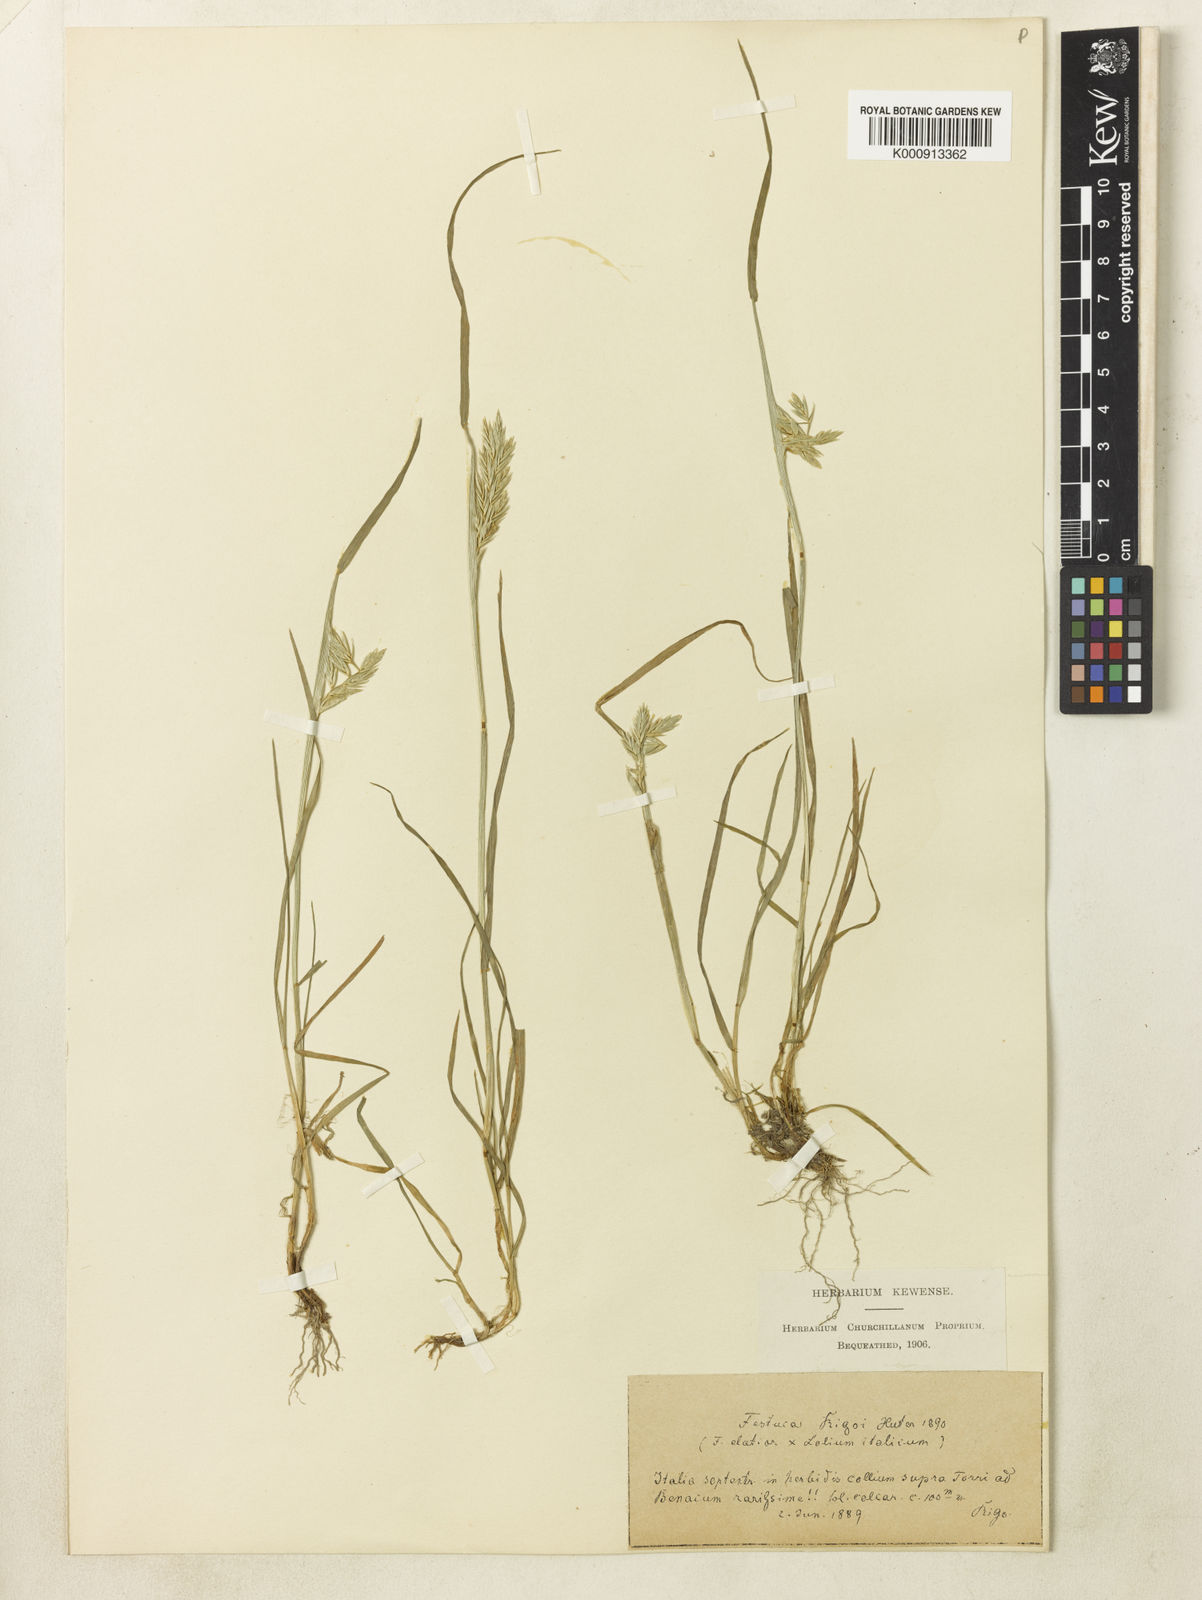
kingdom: Plantae
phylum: Tracheophyta
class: Liliopsida
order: Poales
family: Poaceae
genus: Lolium
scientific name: Lolium multiflorum
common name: Annual ryegrass
